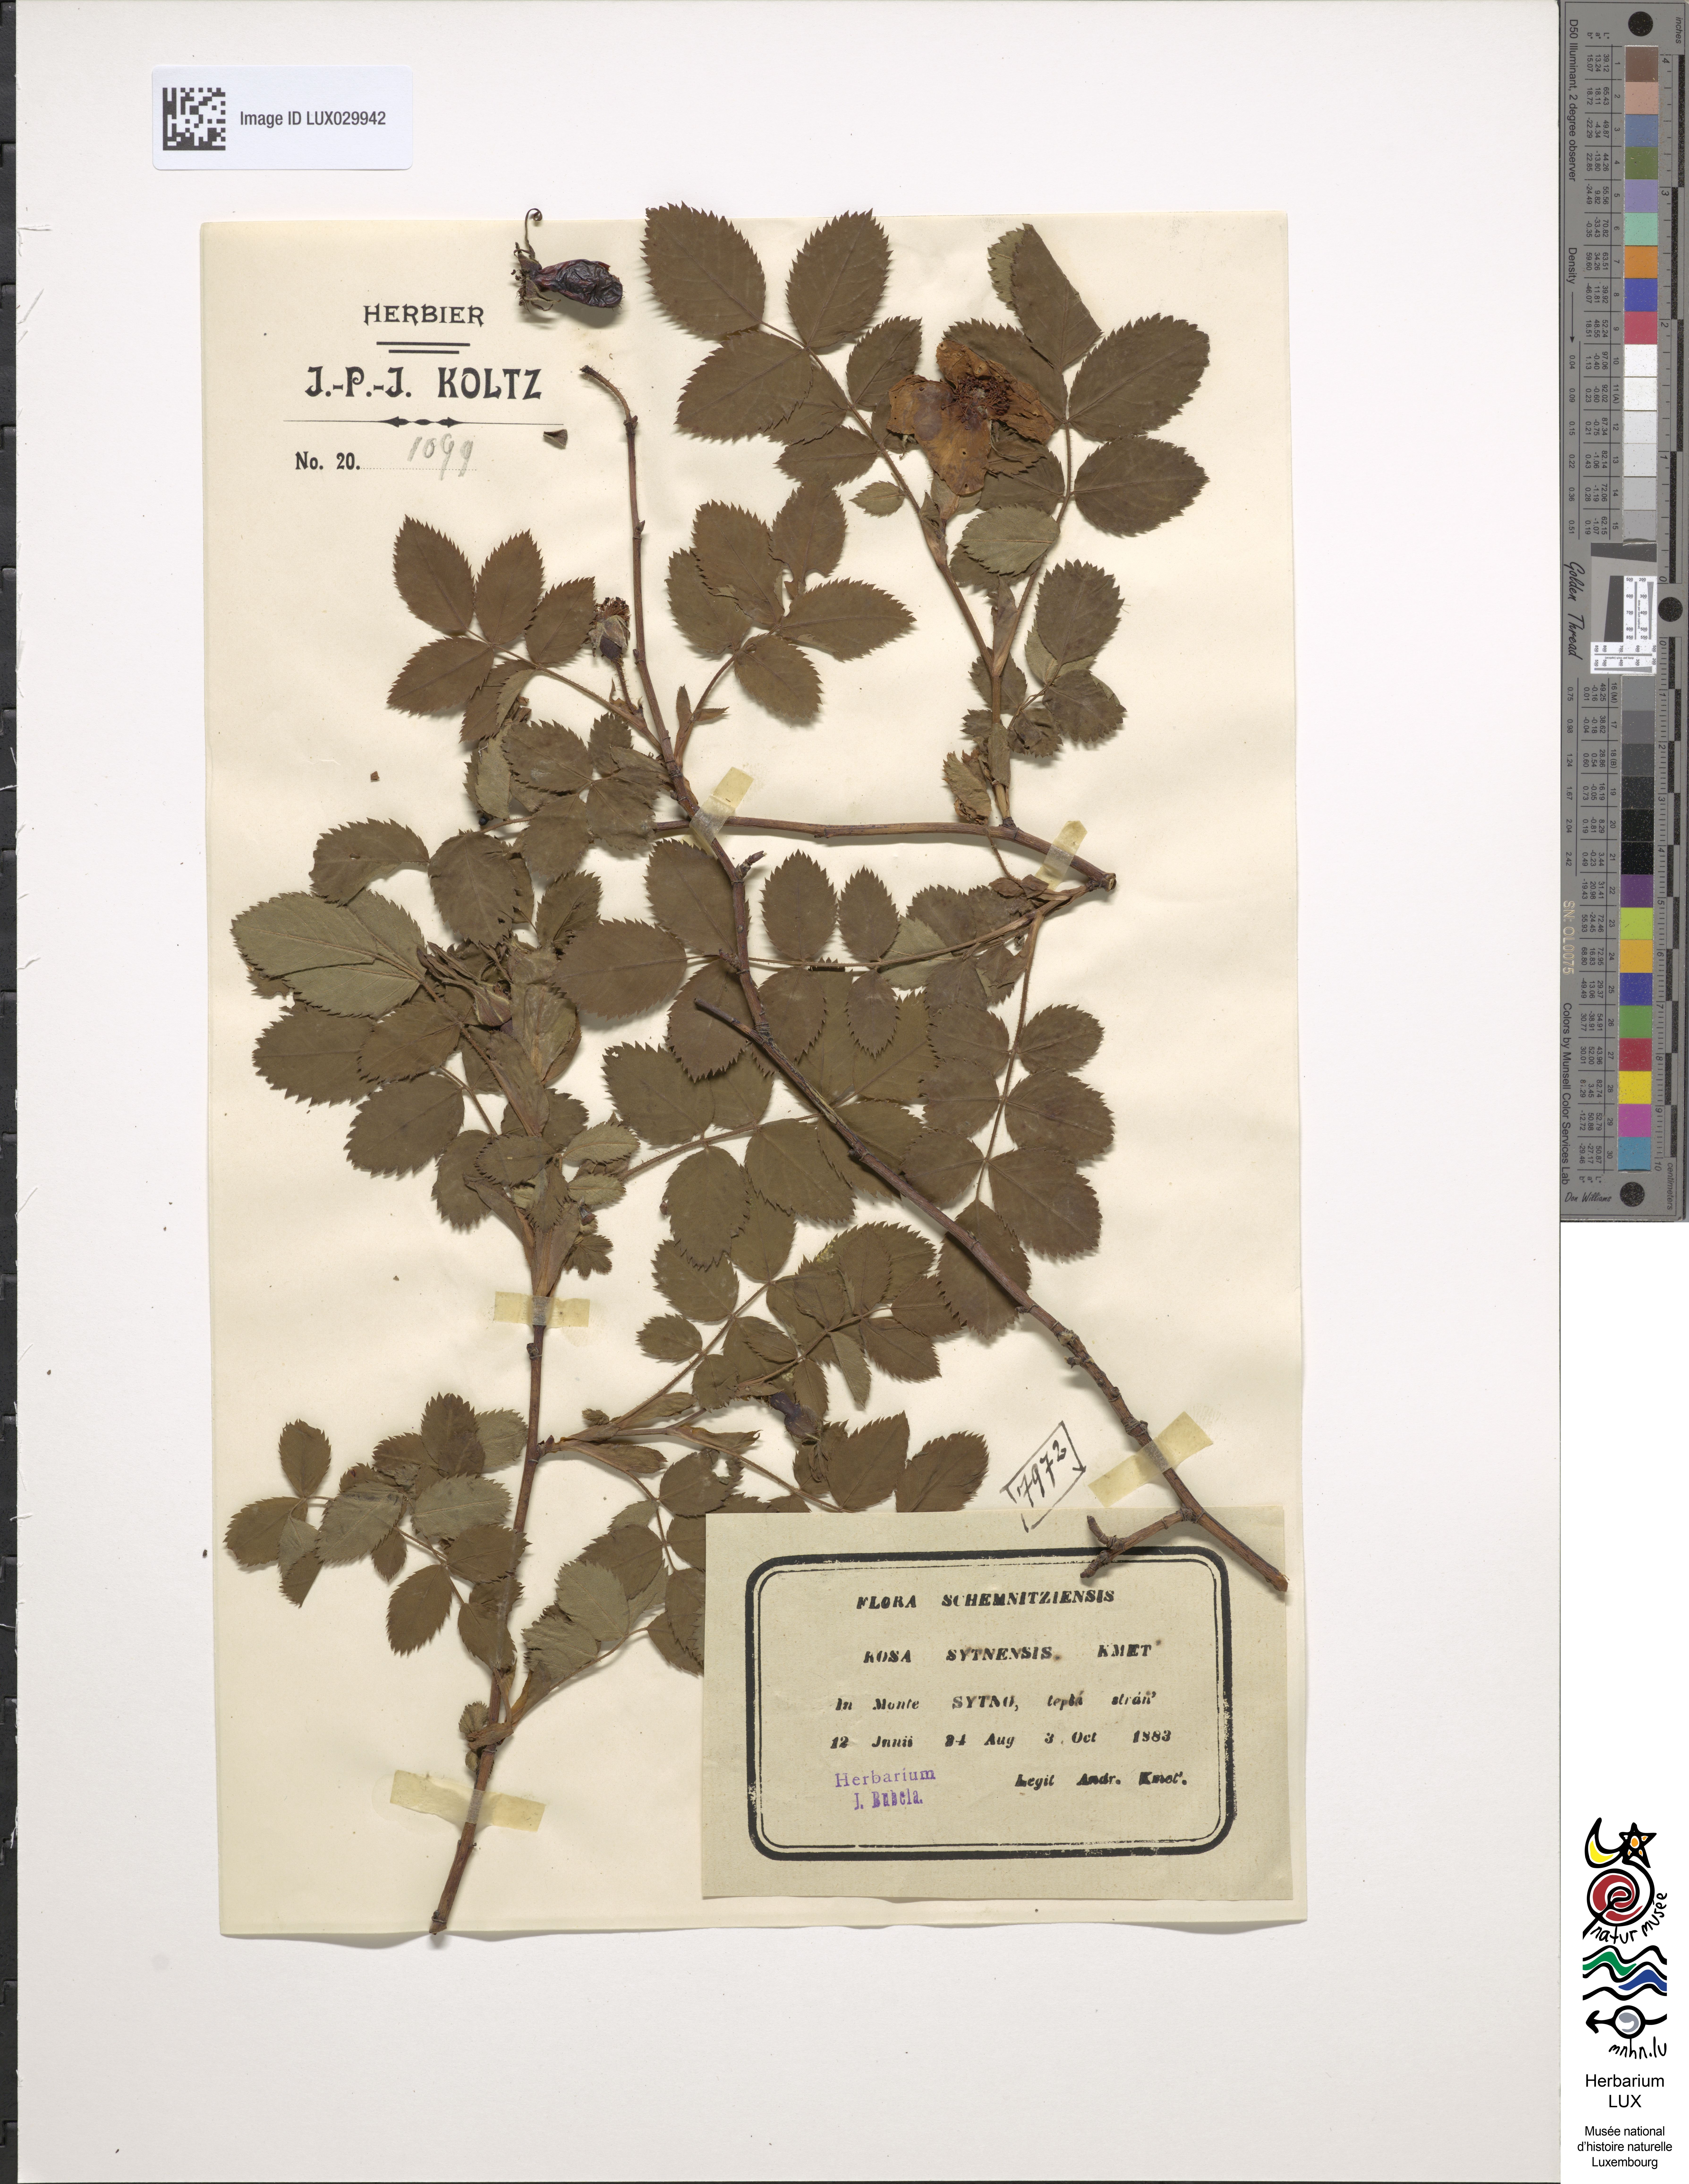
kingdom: Plantae
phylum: Tracheophyta
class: Magnoliopsida
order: Rosales
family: Rosaceae
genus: Rosa
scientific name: Rosa sytnensis
